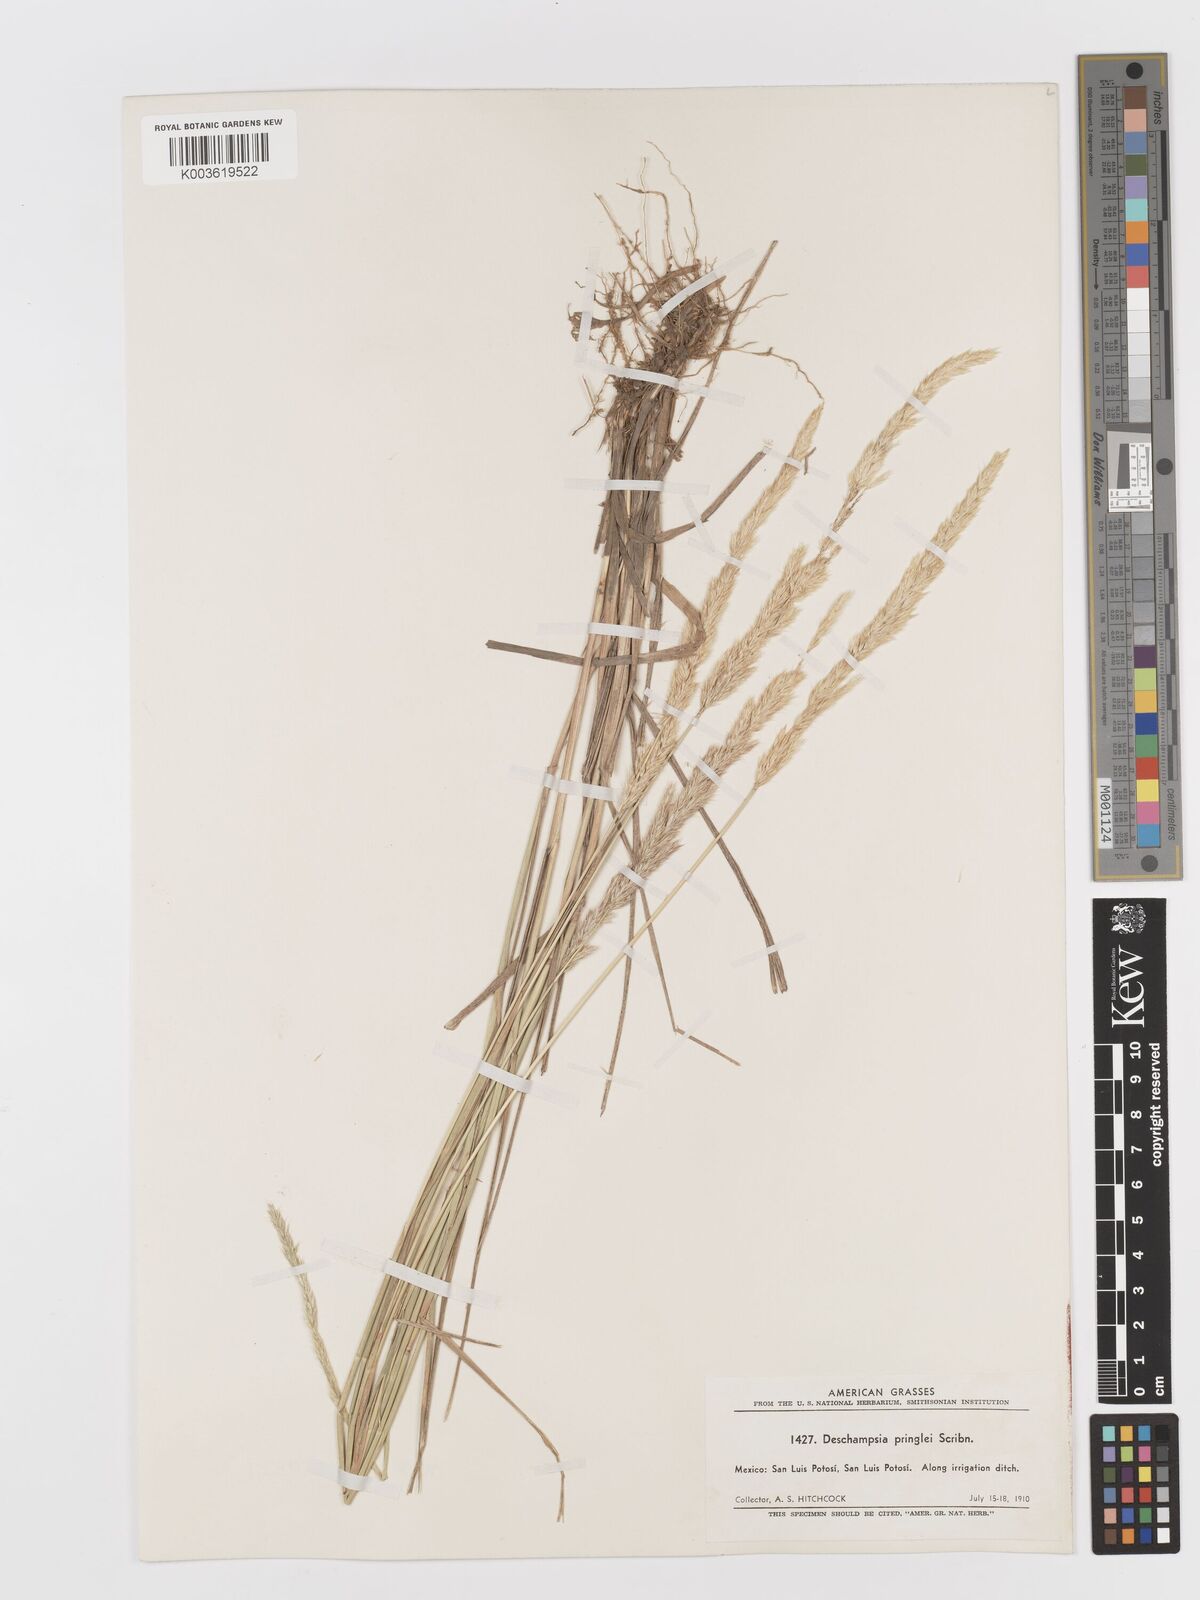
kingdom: Plantae
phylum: Tracheophyta
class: Liliopsida
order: Poales
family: Poaceae
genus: Peyritschia
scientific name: Peyritschia pringlei
